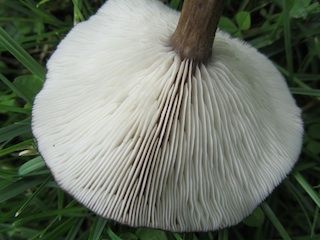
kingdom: Fungi
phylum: Basidiomycota
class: Agaricomycetes
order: Agaricales
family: Tricholomataceae
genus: Melanoleuca
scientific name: Melanoleuca exscissa
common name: gusten munkehat
